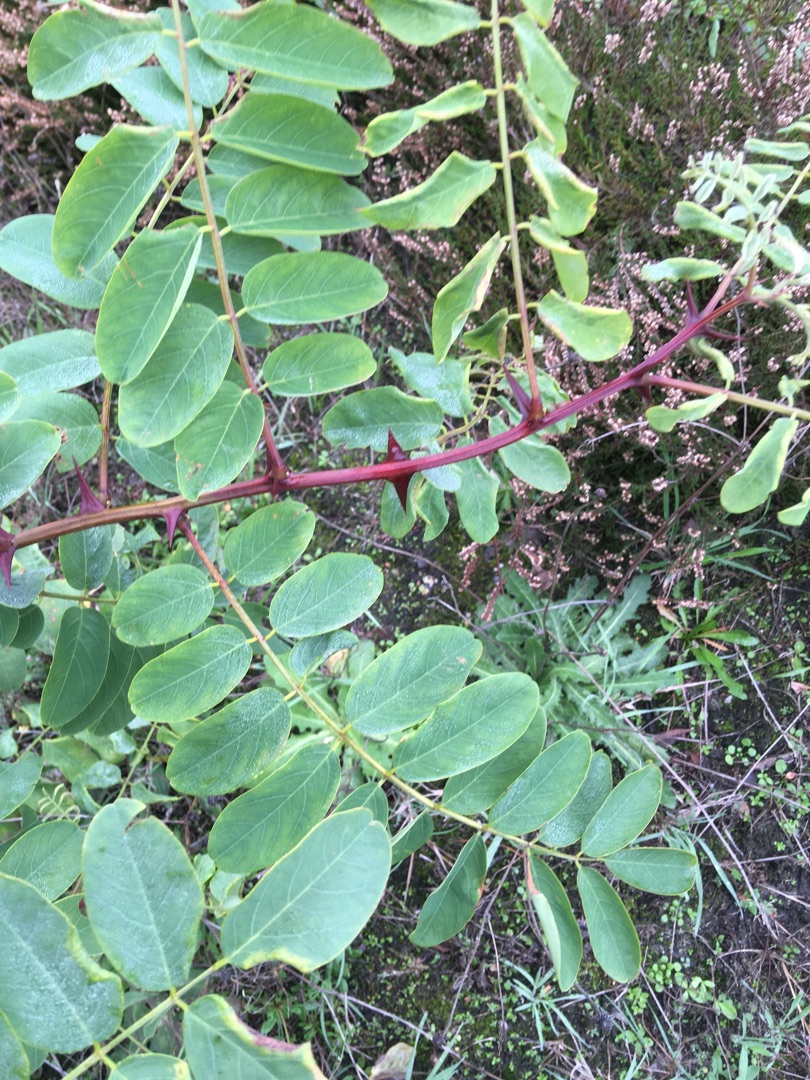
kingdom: Plantae
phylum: Tracheophyta
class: Magnoliopsida
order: Fabales
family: Fabaceae
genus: Robinia
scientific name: Robinia pseudoacacia
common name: Robinie
